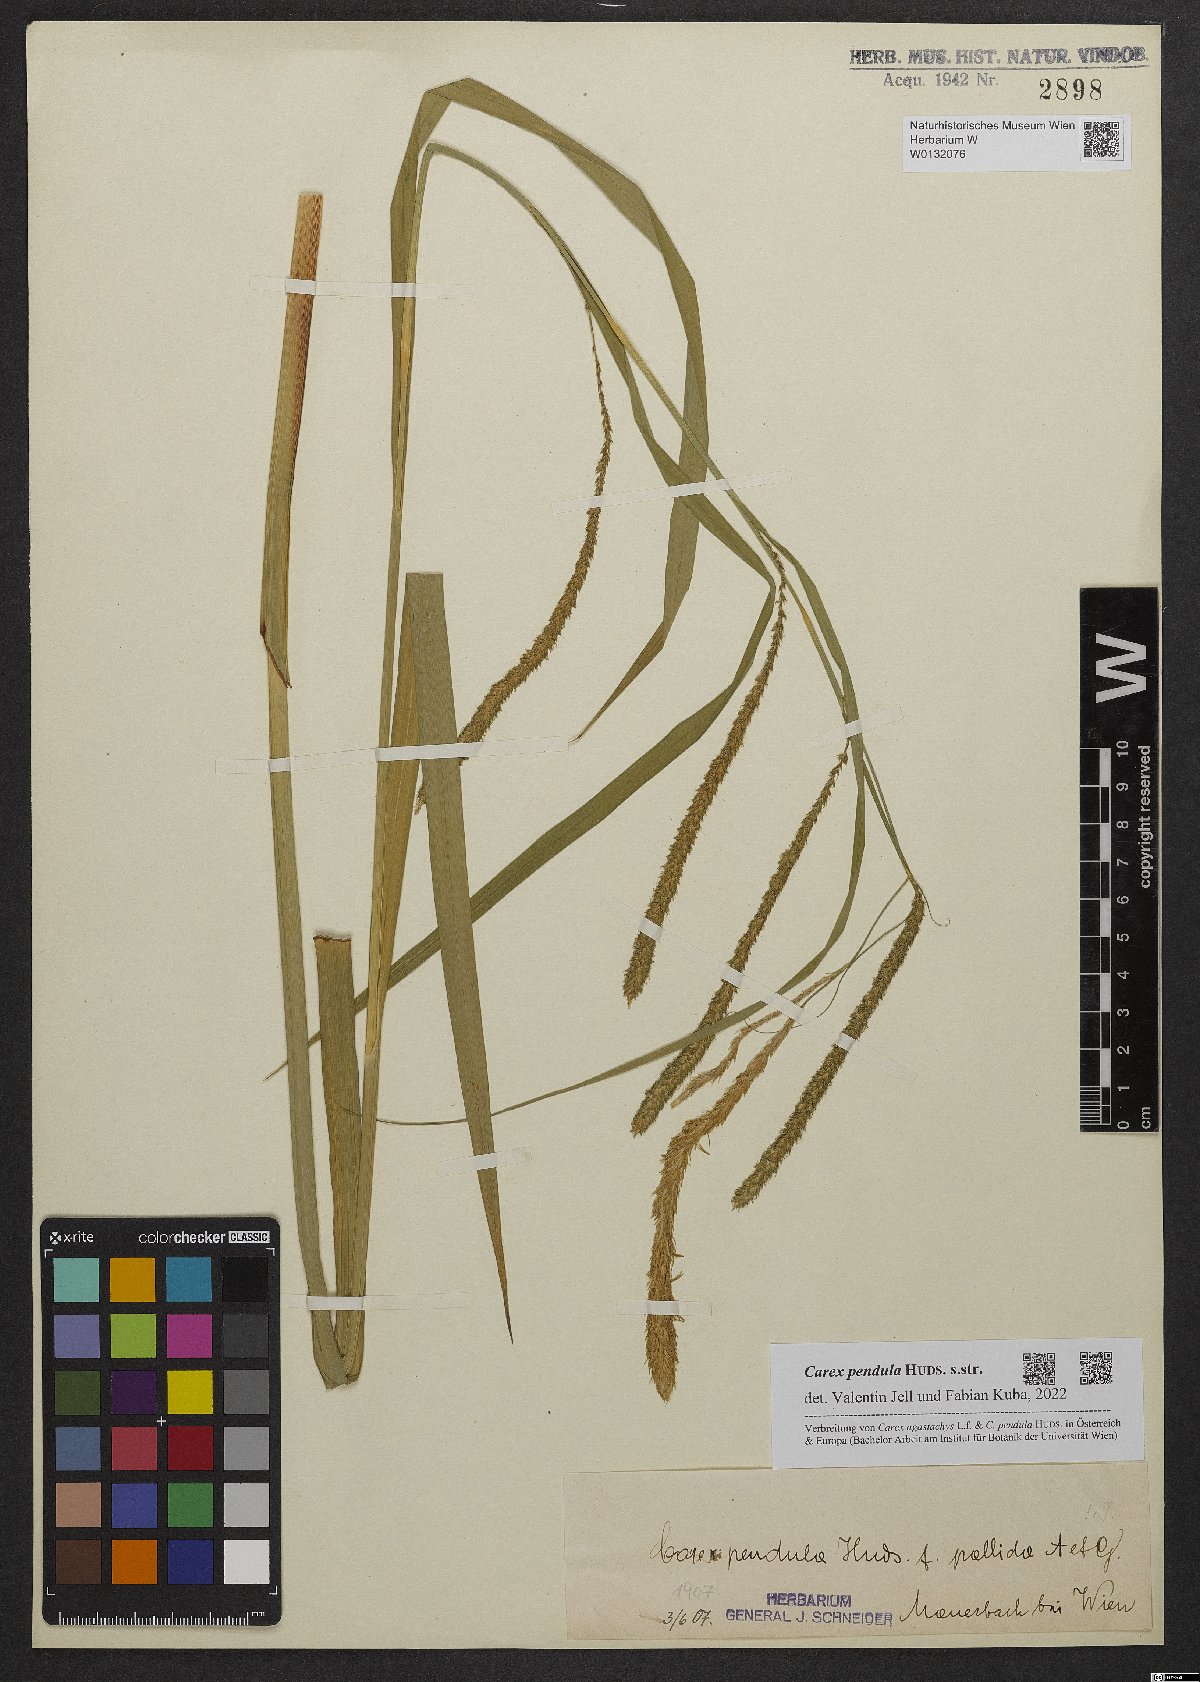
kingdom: Plantae
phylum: Tracheophyta
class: Liliopsida
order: Poales
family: Cyperaceae
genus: Carex
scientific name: Carex pendula
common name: Pendulous sedge
